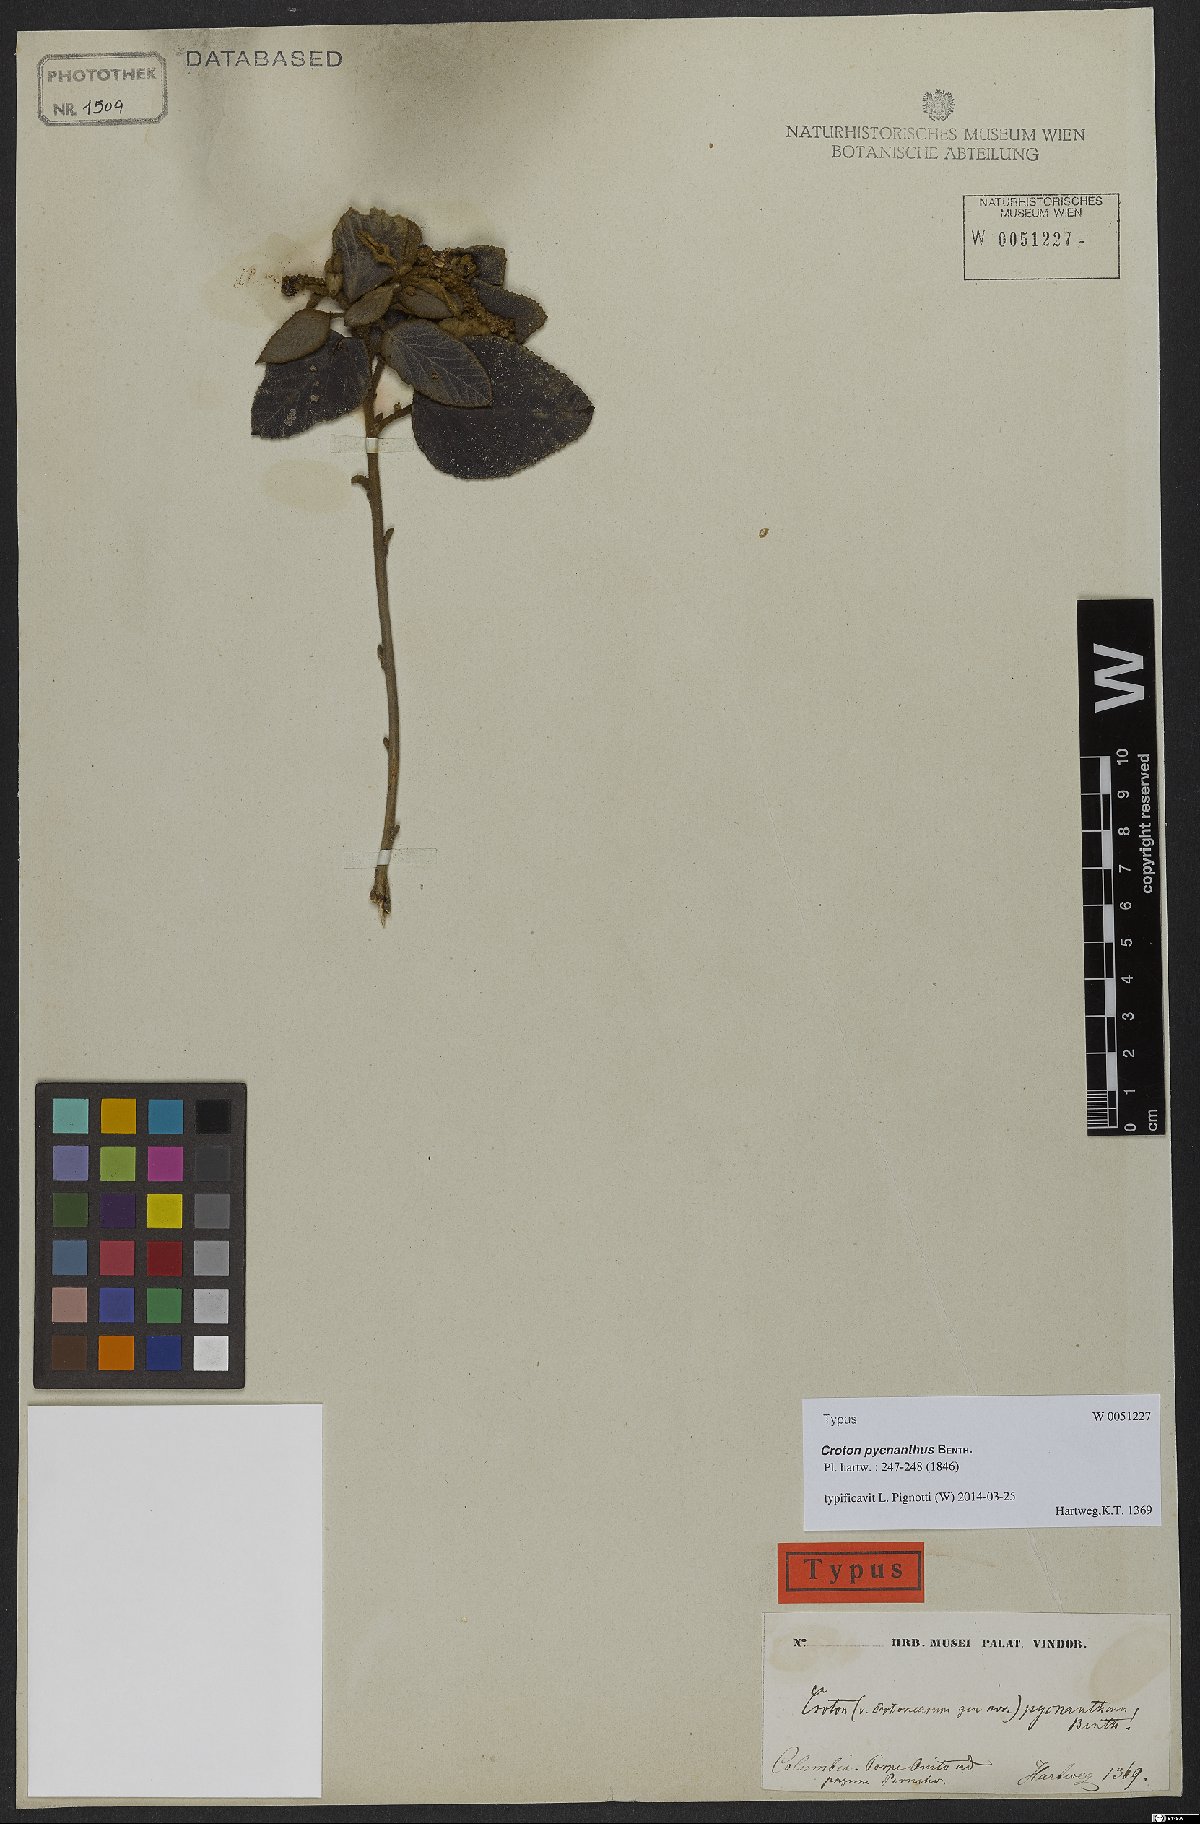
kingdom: Plantae
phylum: Tracheophyta
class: Liliopsida
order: Asparagales
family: Orchidaceae
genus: Habenaria
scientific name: Habenaria uliginosa
